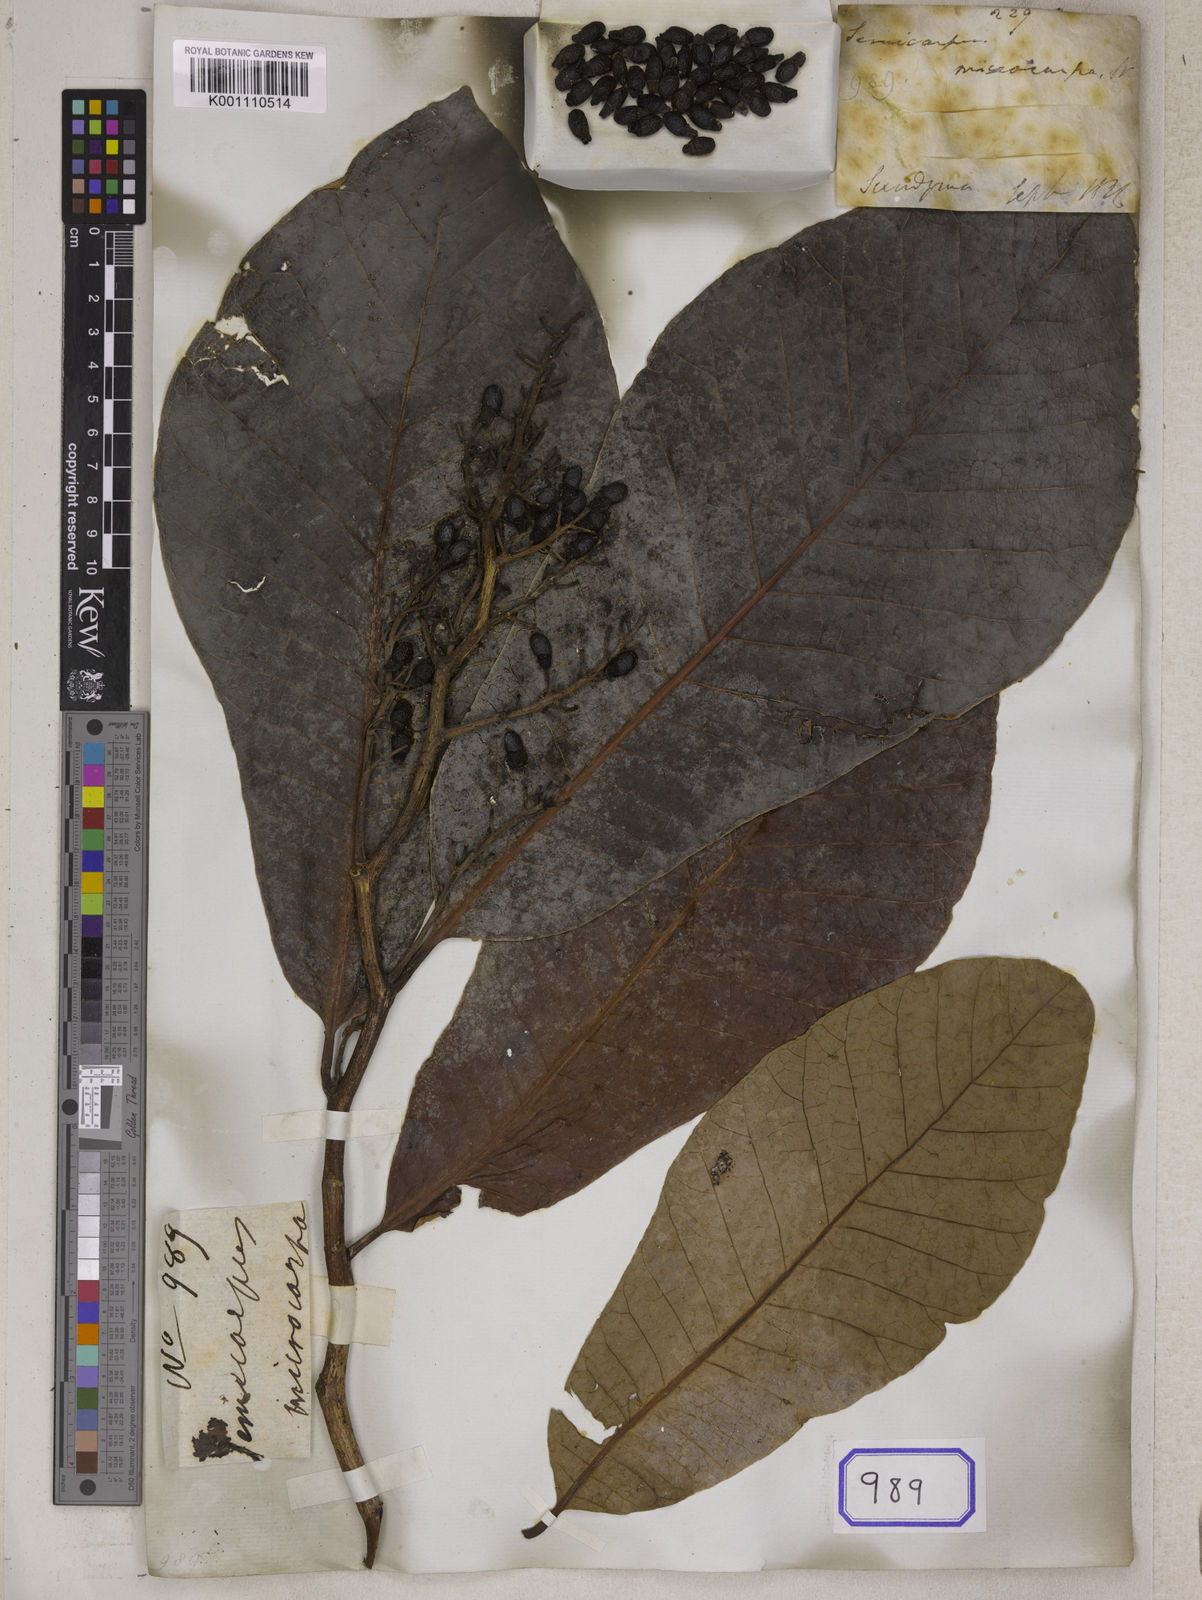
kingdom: Plantae
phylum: Tracheophyta
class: Magnoliopsida
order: Sapindales
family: Anacardiaceae
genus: Semecarpus
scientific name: Semecarpus
